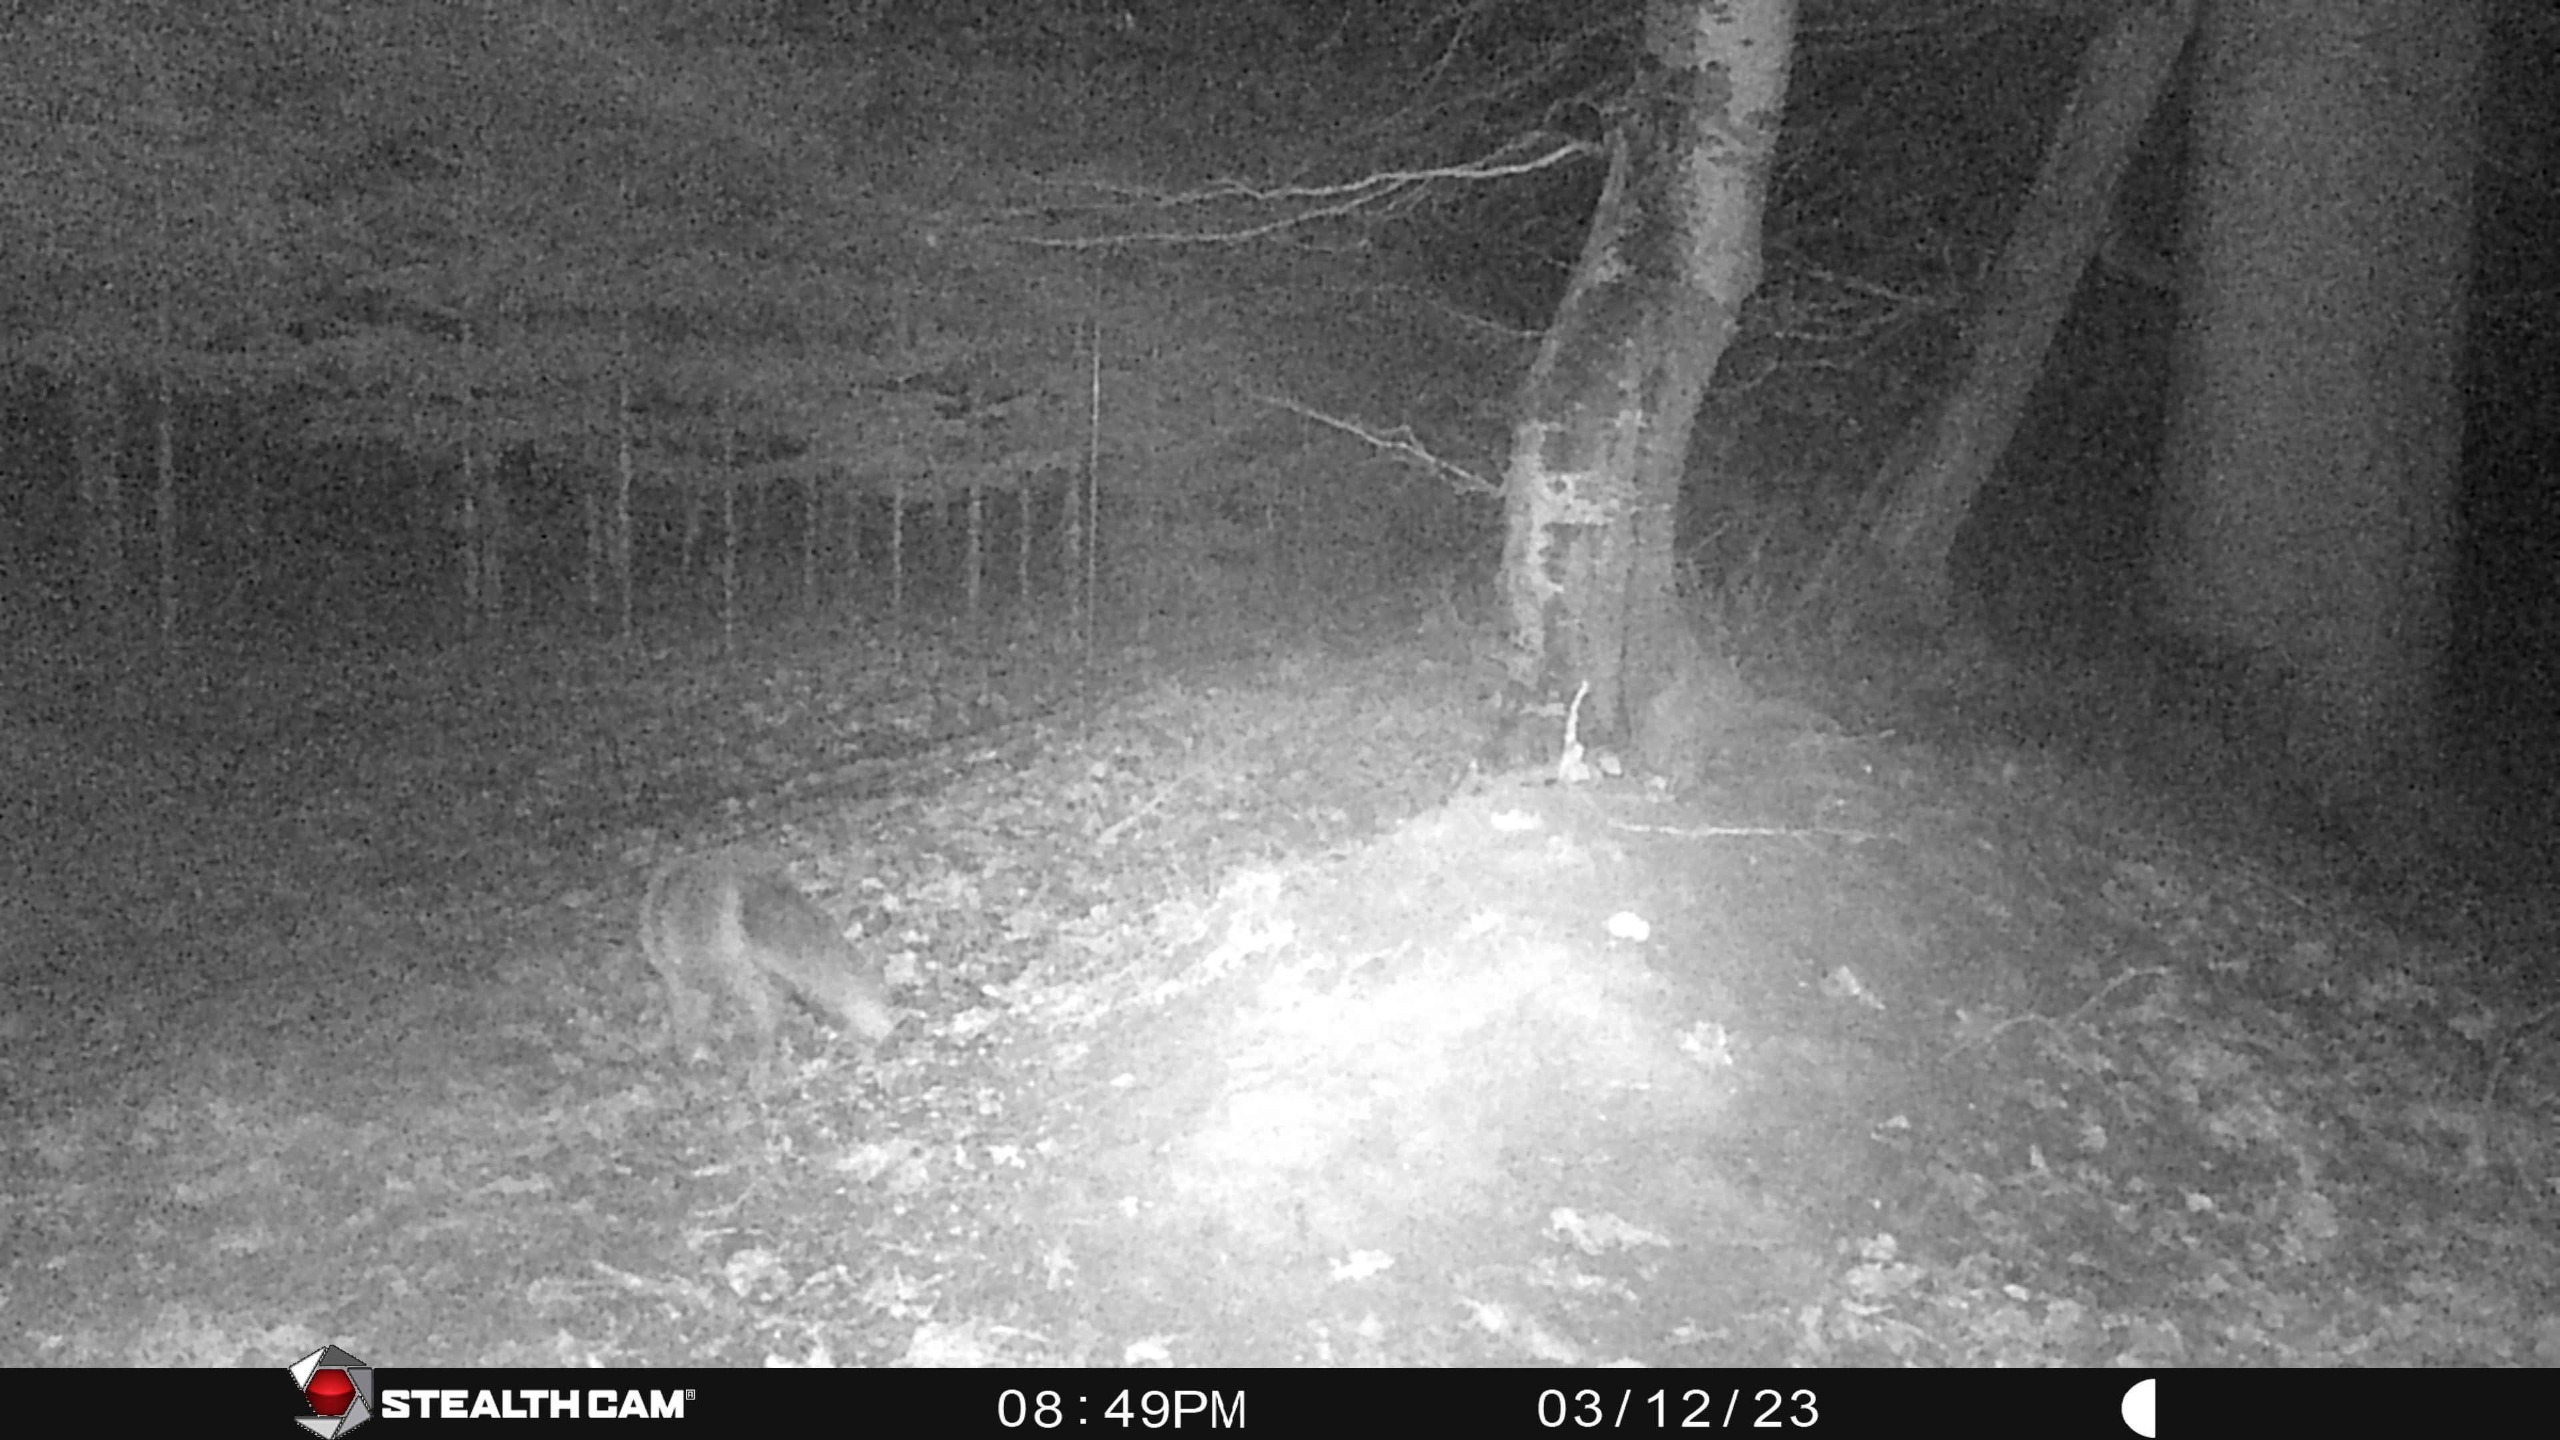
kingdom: Animalia
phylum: Chordata
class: Mammalia
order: Carnivora
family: Canidae
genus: Vulpes
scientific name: Vulpes vulpes
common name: Ræv
